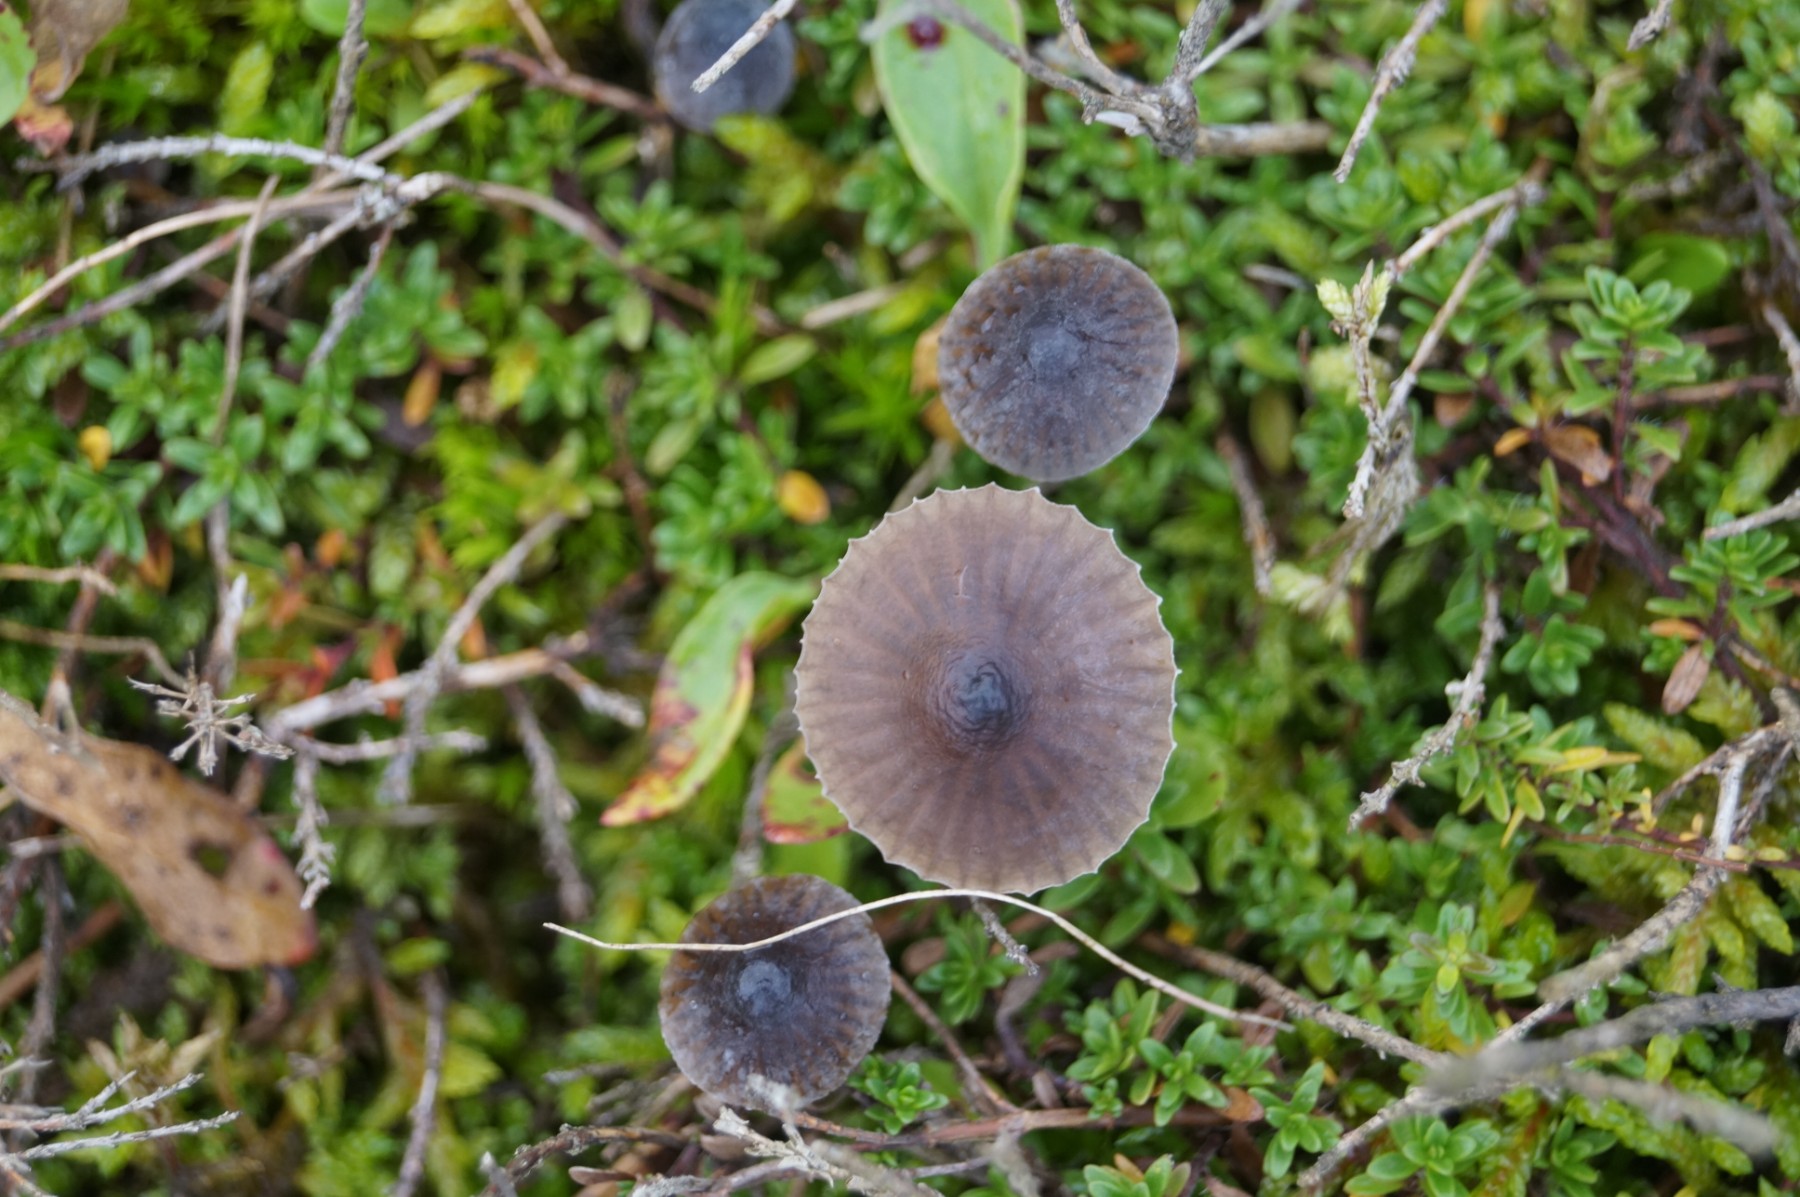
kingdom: Fungi
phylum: Basidiomycota
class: Agaricomycetes
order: Agaricales
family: Mycenaceae
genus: Mycena
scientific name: Mycena
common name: huesvamp
